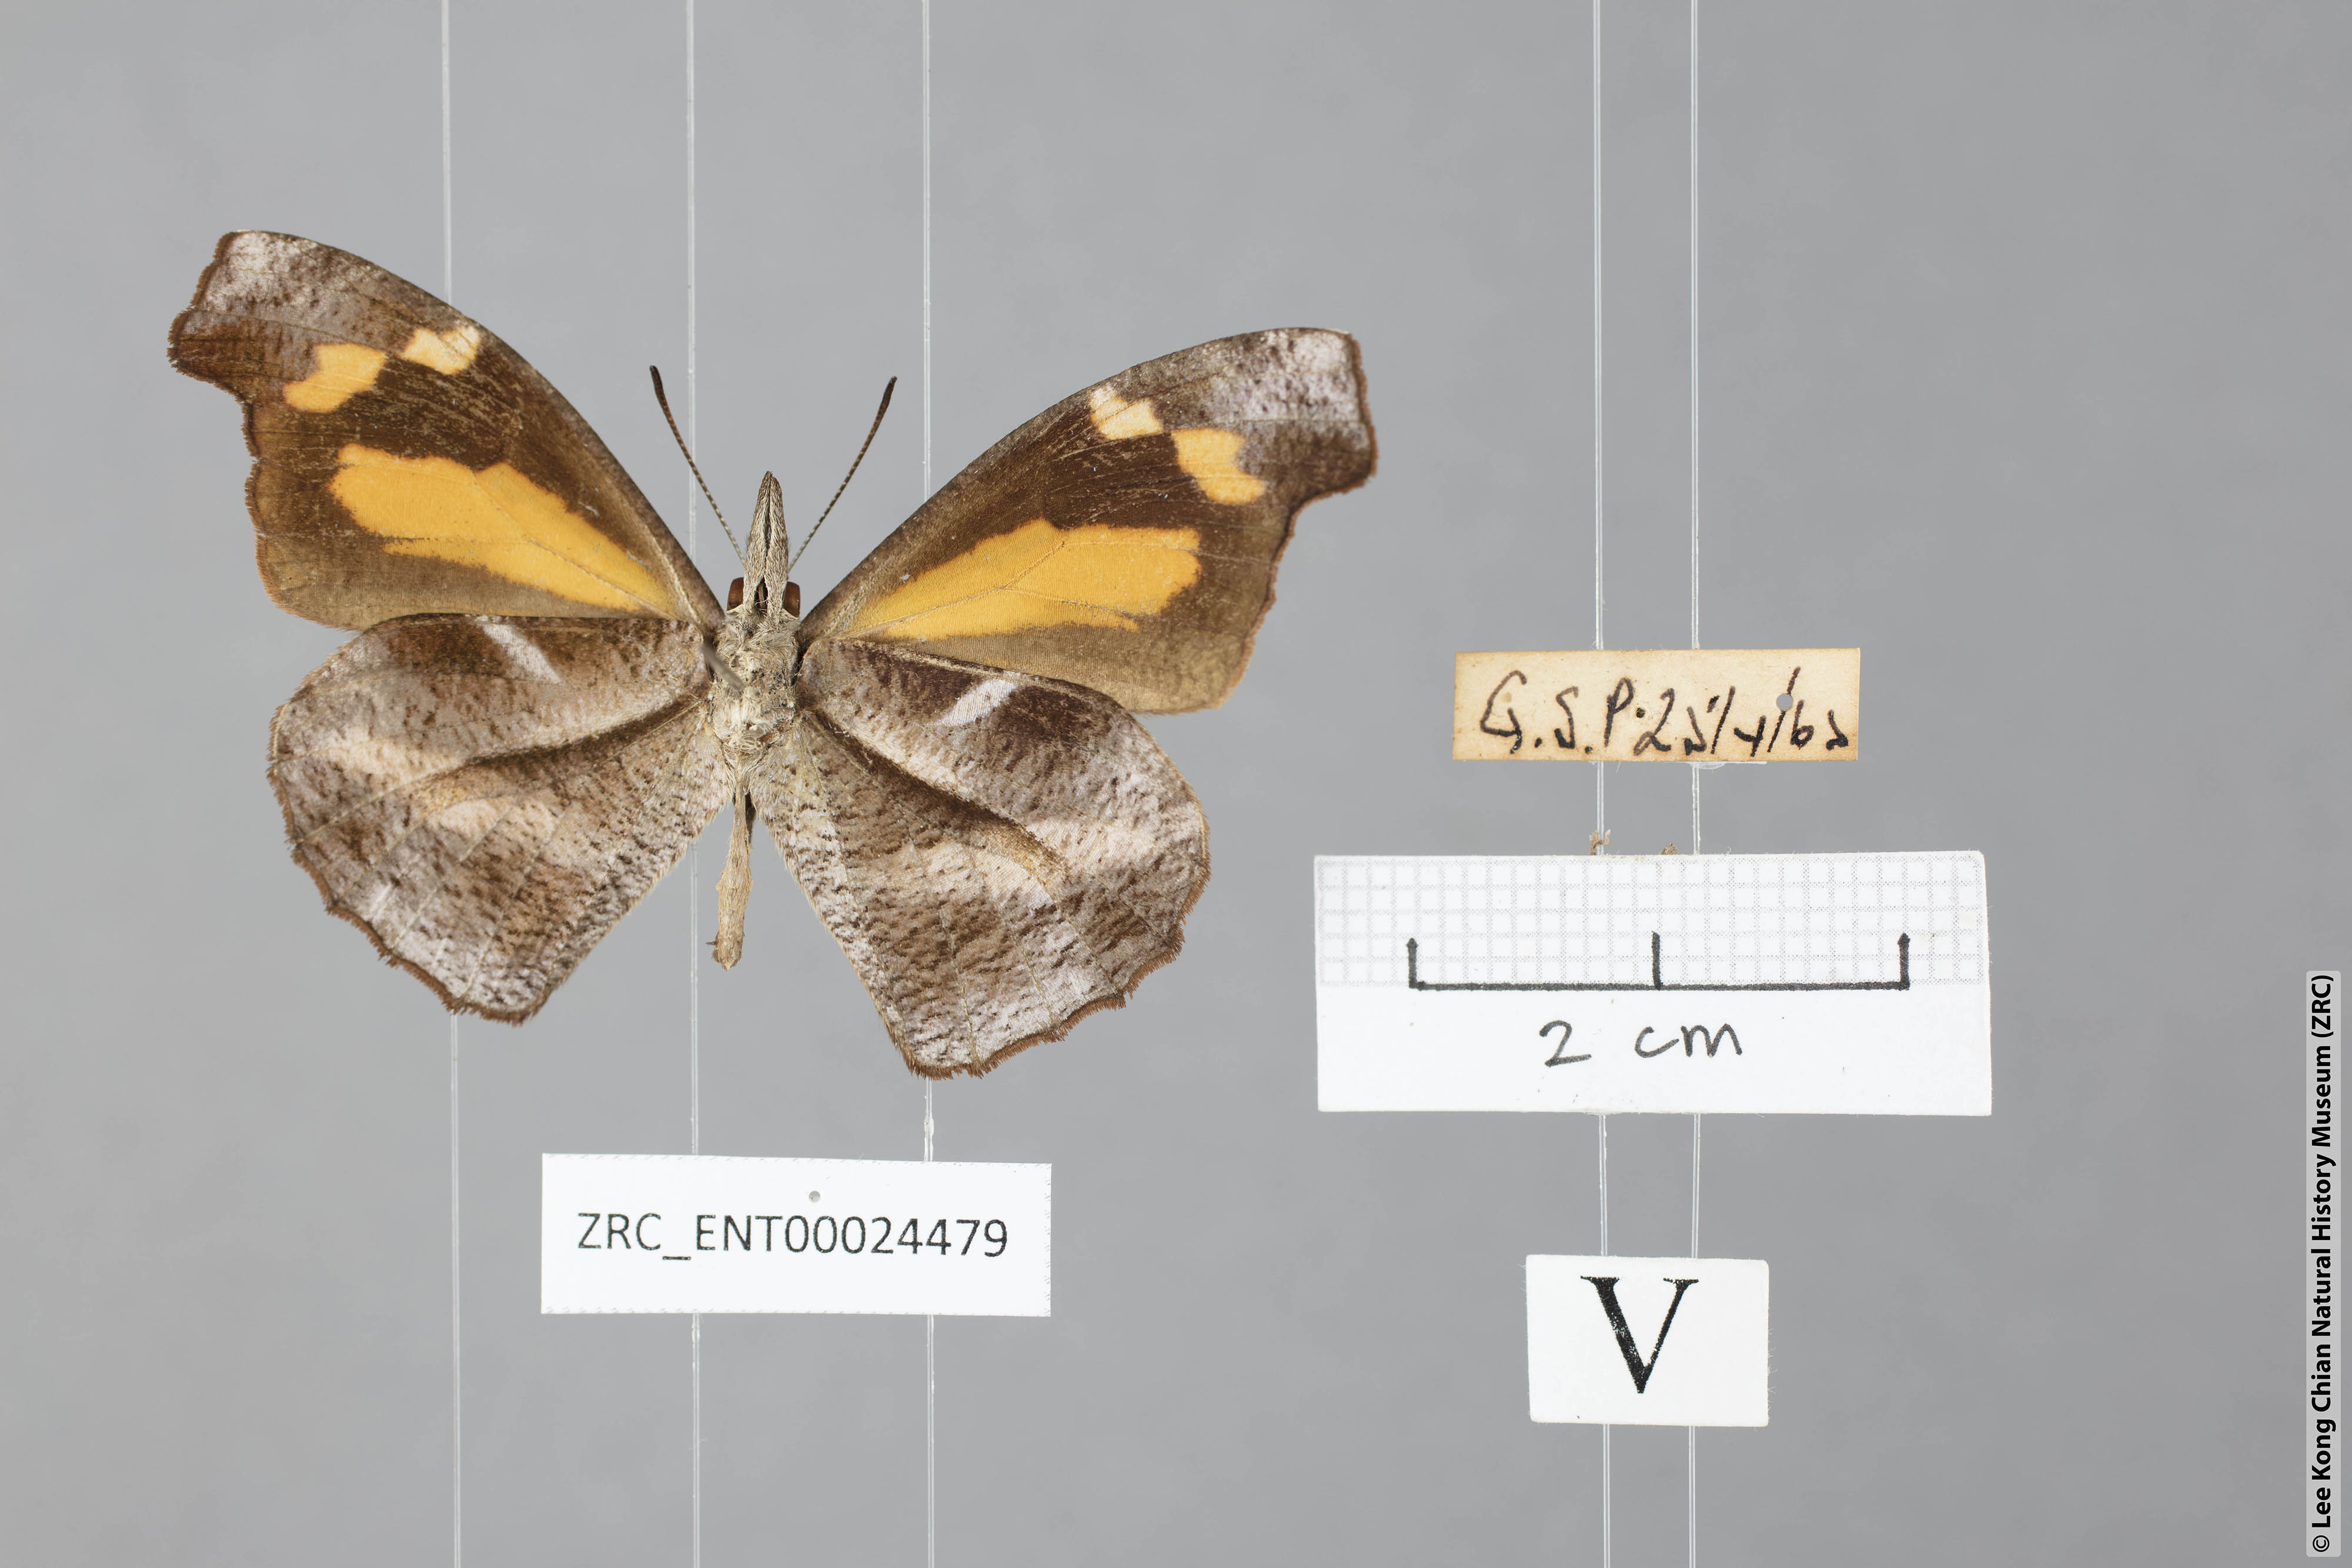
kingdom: Animalia
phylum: Arthropoda
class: Insecta
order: Lepidoptera
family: Nymphalidae
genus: Libythea
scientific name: Libythea myrrha
